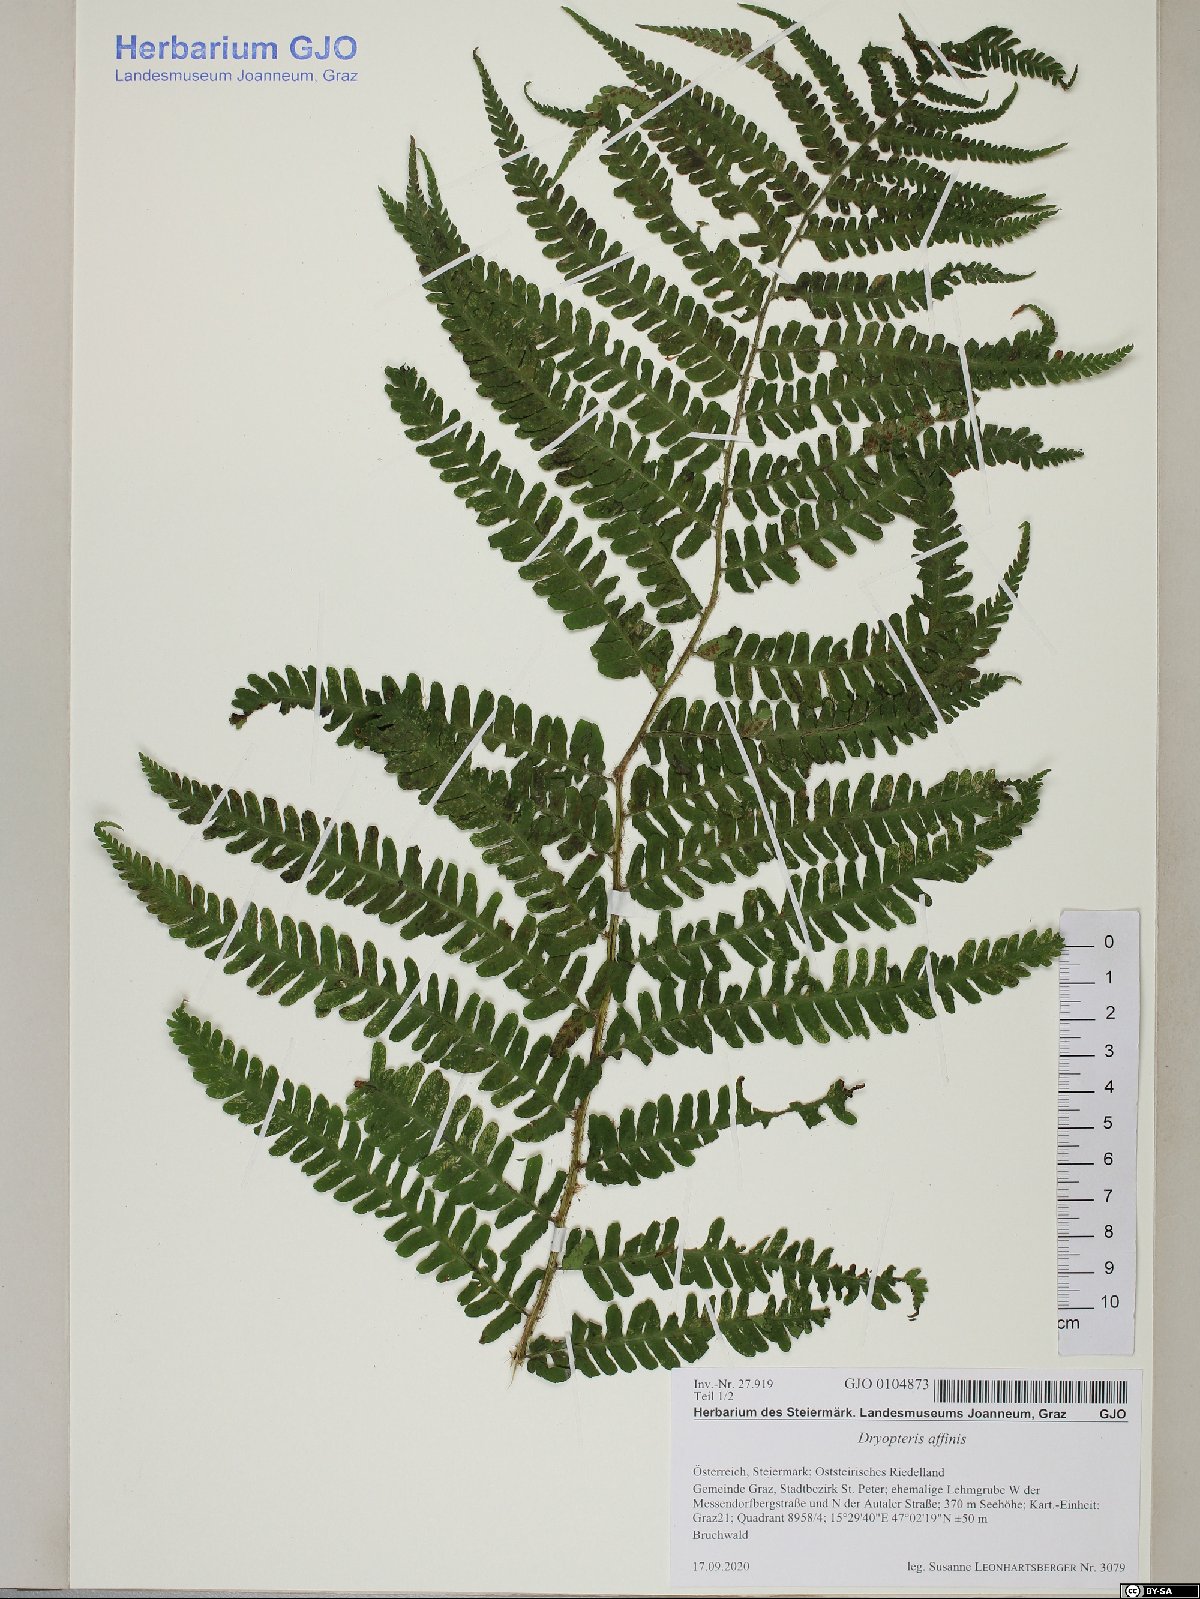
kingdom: Plantae
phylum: Tracheophyta
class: Polypodiopsida
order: Polypodiales
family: Dryopteridaceae
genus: Dryopteris
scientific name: Dryopteris affinis
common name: Scaly male fern
